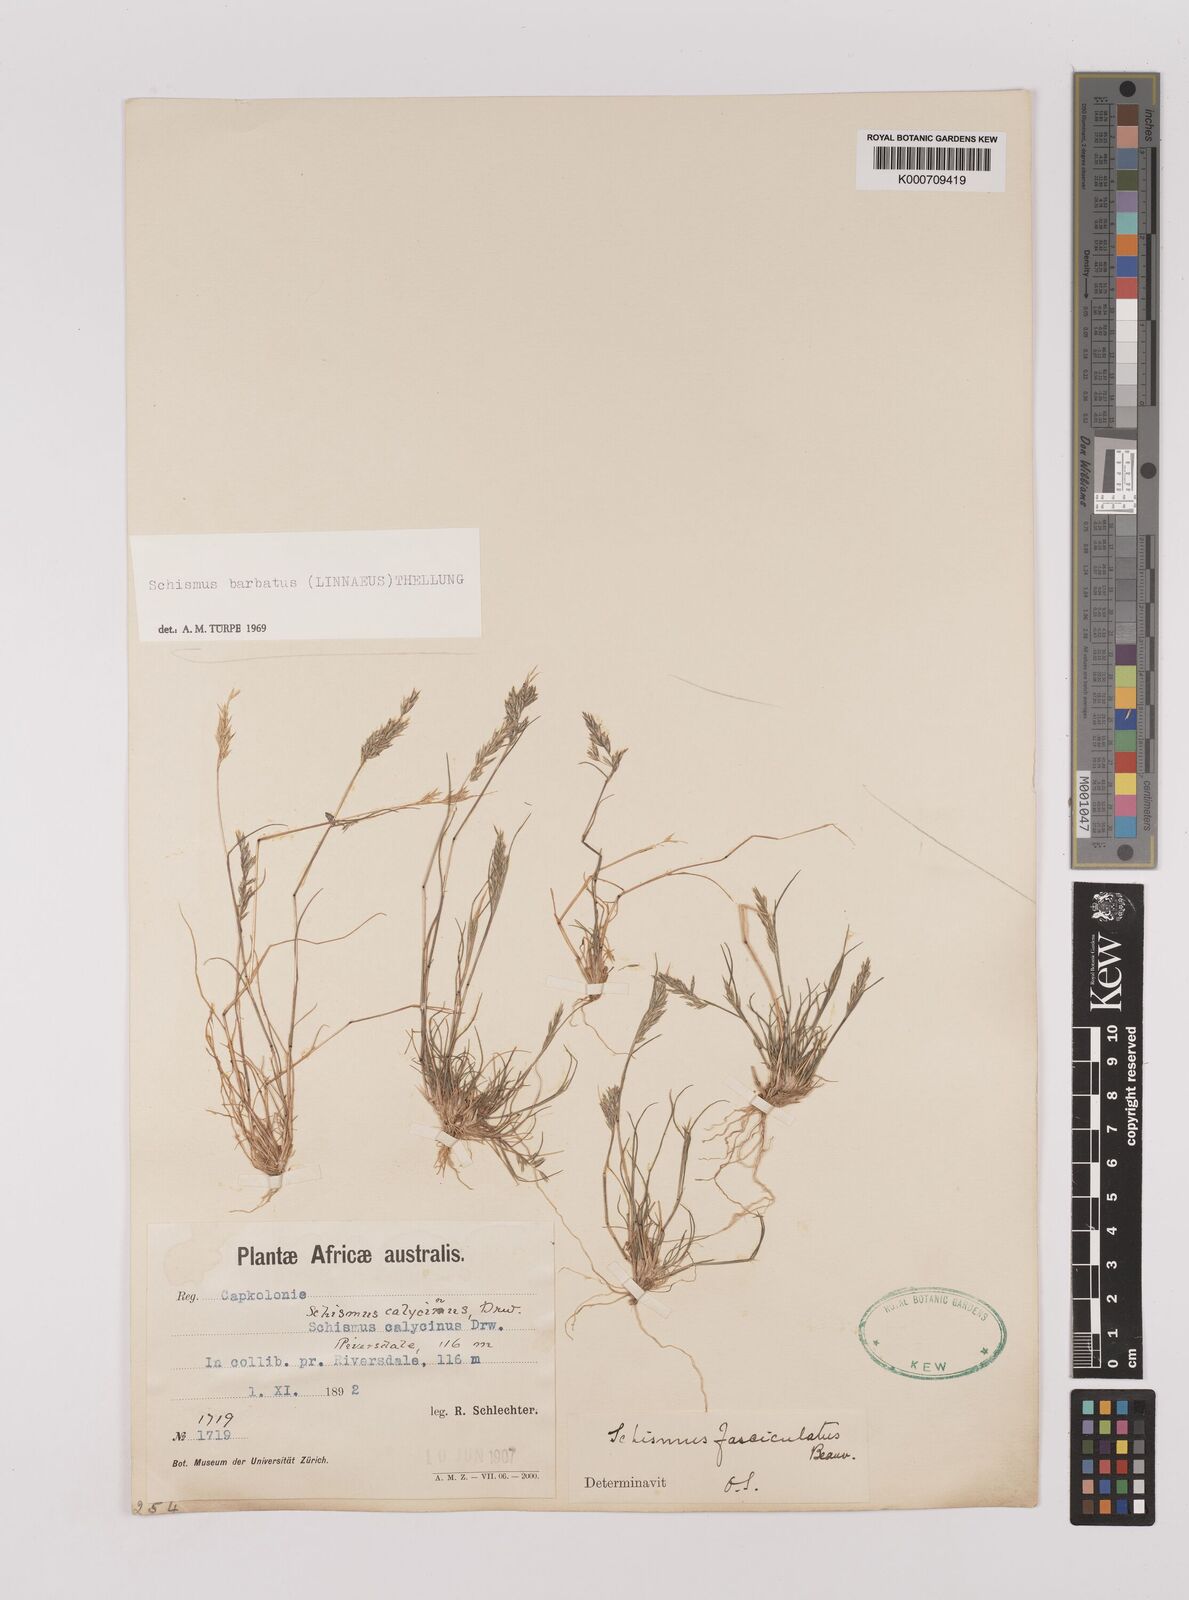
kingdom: Plantae
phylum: Tracheophyta
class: Liliopsida
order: Poales
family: Poaceae
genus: Schismus
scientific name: Schismus barbatus
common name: Kelch-grass
